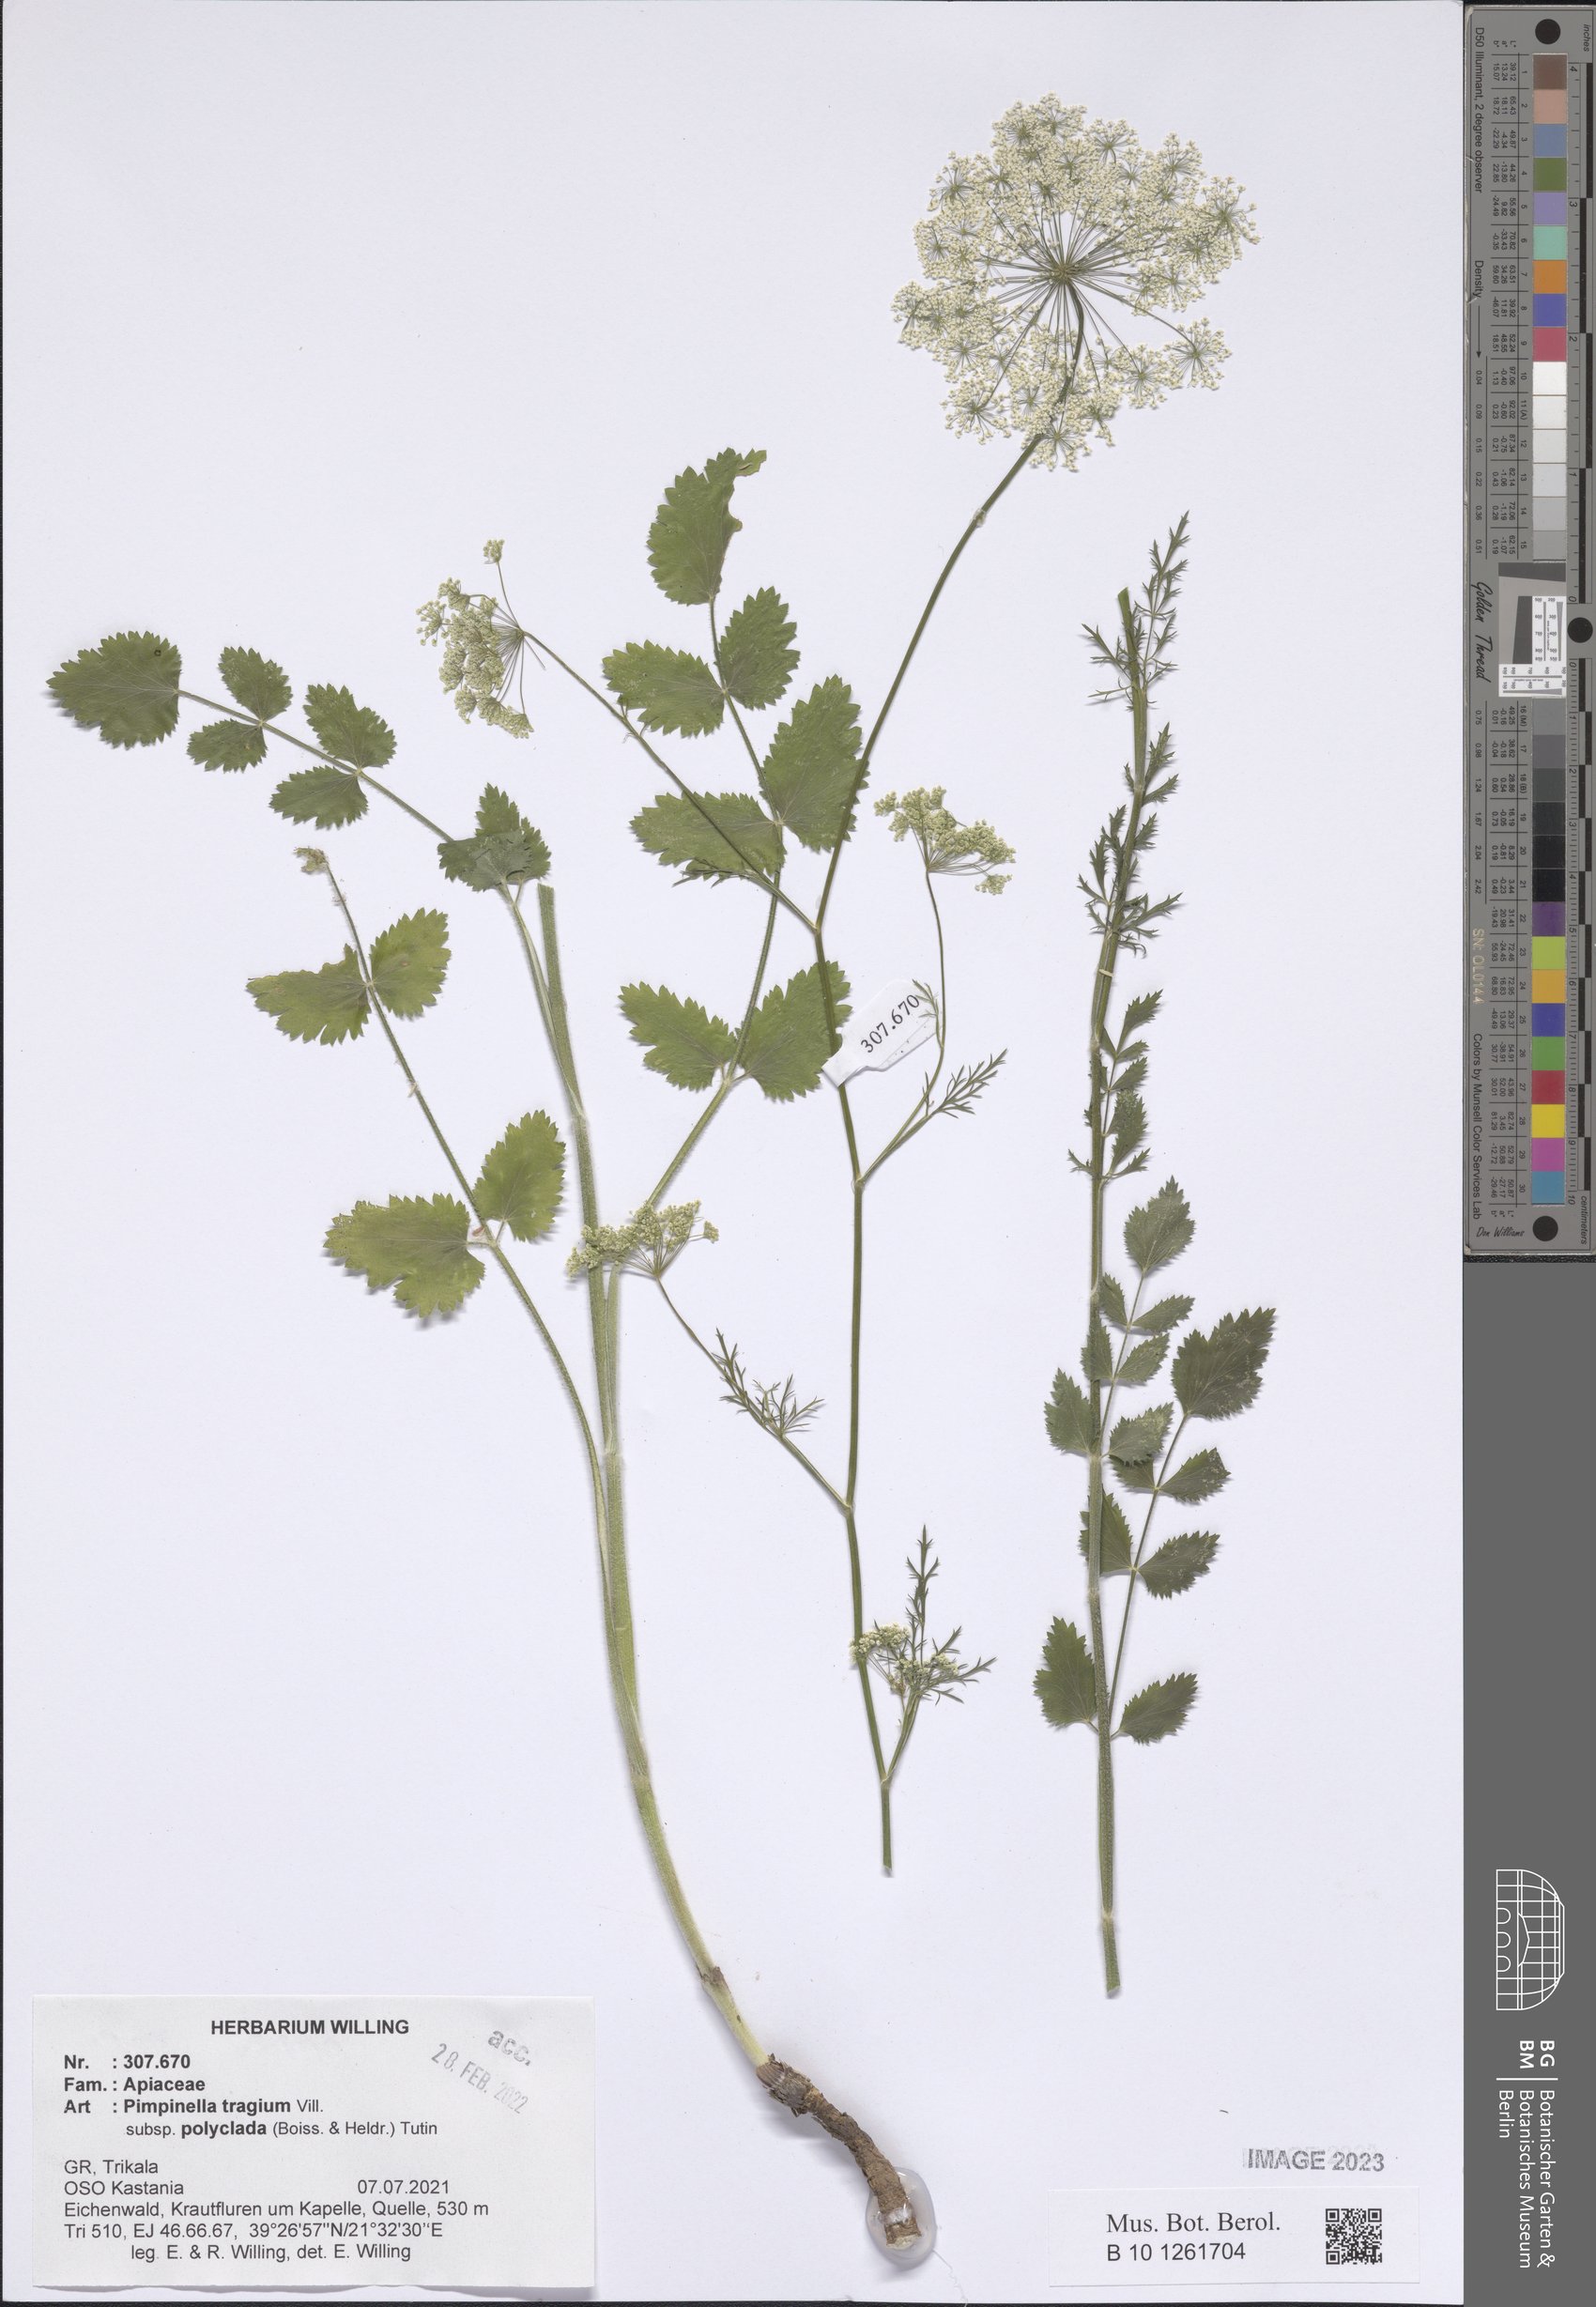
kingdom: Plantae
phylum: Tracheophyta
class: Magnoliopsida
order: Apiales
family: Apiaceae
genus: Pimpinella
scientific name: Pimpinella tragium
